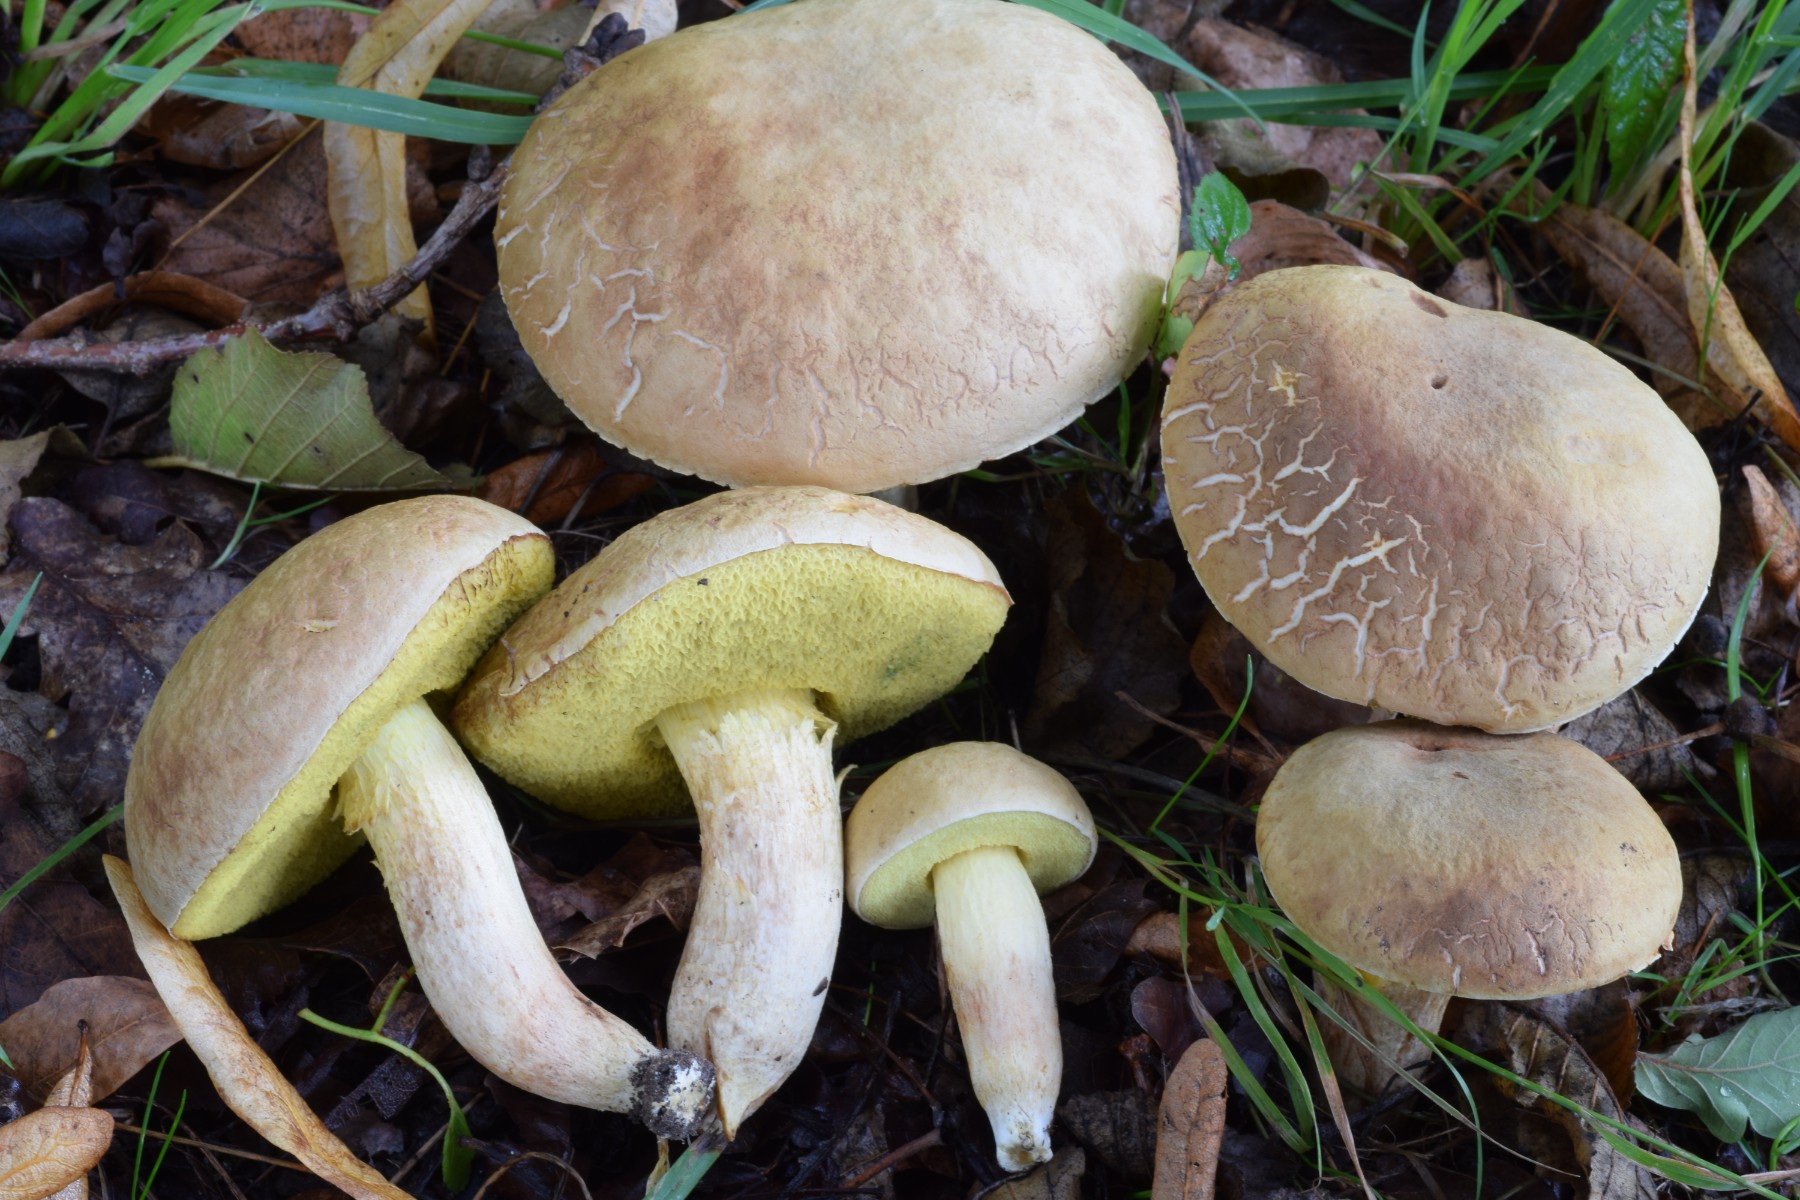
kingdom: Fungi
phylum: Basidiomycota
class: Agaricomycetes
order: Boletales
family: Boletaceae
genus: Xerocomus
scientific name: Xerocomus
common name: filtrørhat
